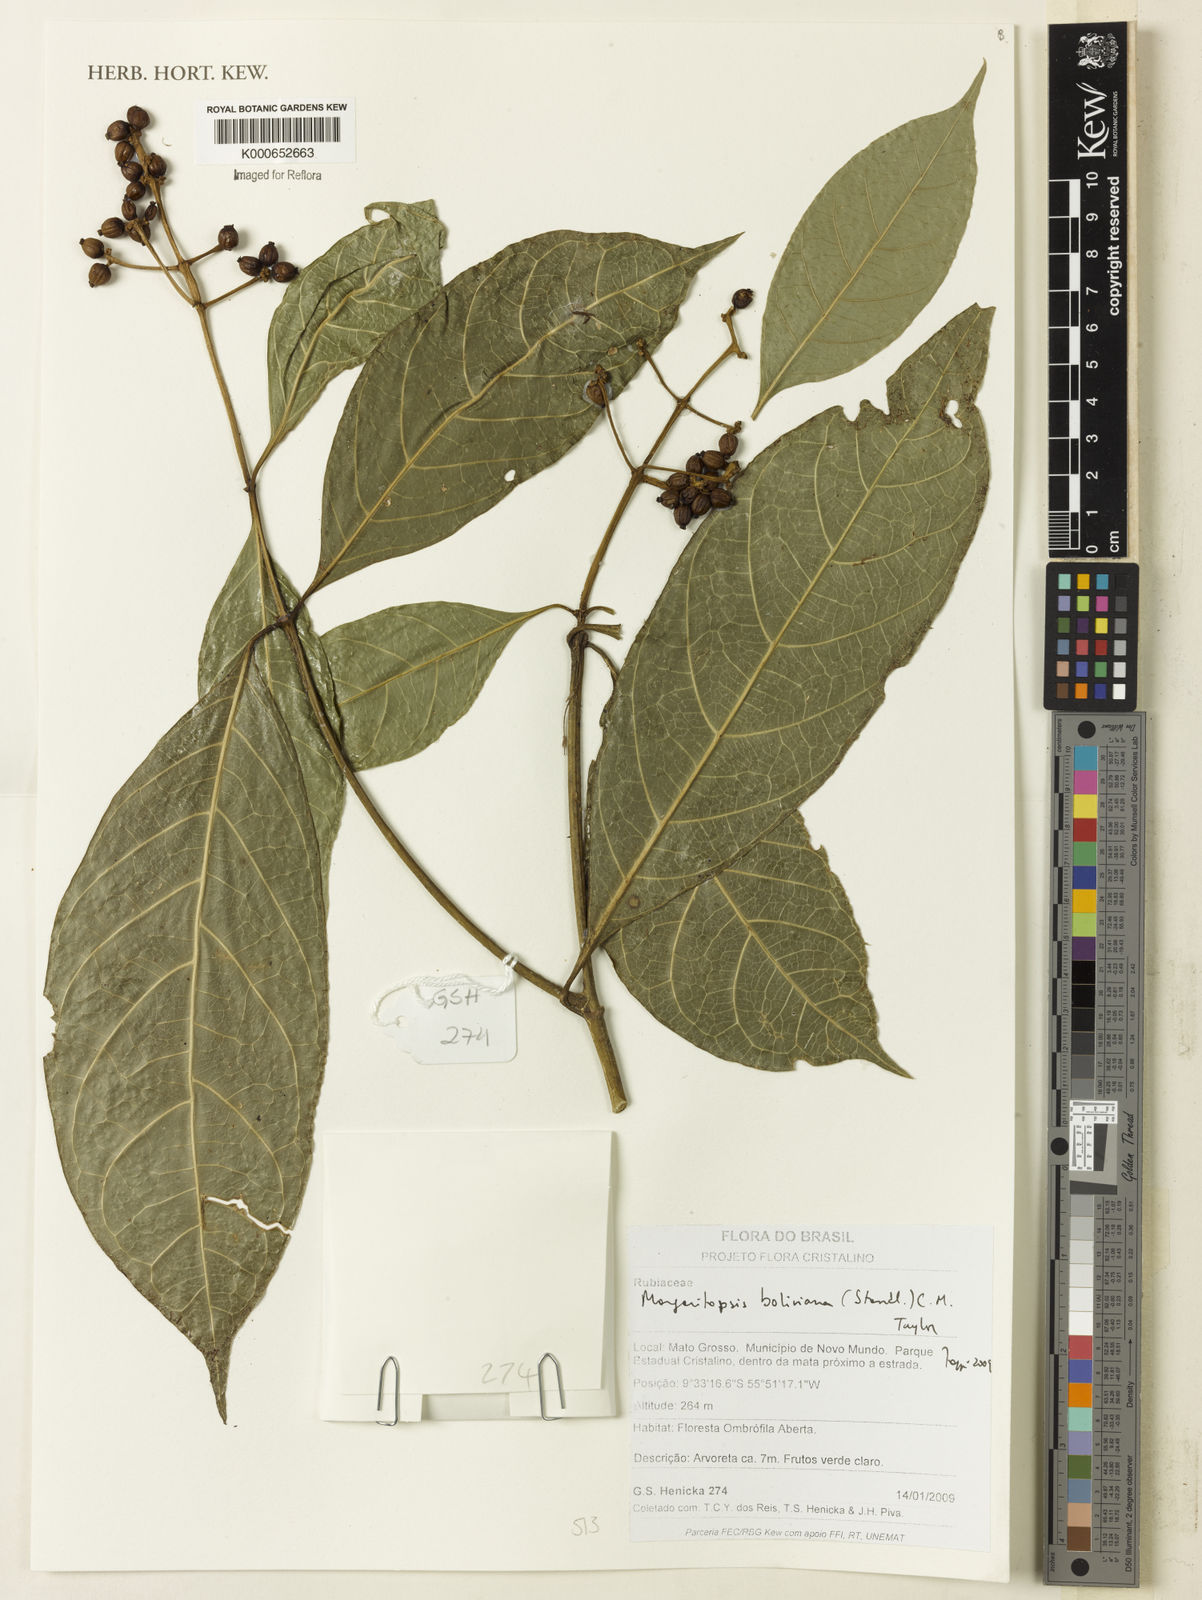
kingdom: Plantae
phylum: Tracheophyta
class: Magnoliopsida
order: Gentianales
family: Rubiaceae
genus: Eumachia
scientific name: Eumachia boliviana
